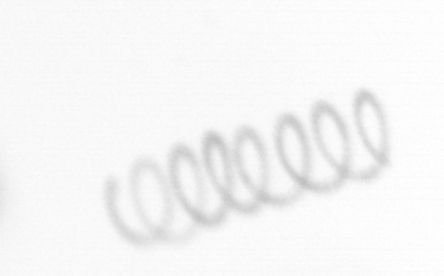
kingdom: Chromista
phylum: Ochrophyta
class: Bacillariophyceae
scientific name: Bacillariophyceae
